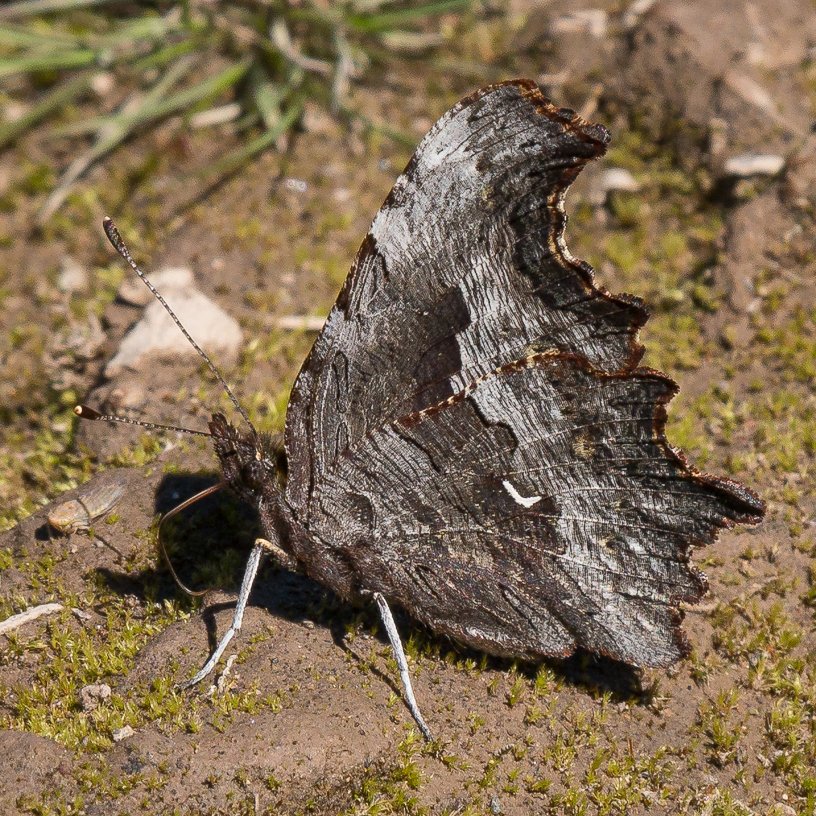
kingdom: Animalia
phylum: Arthropoda
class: Insecta
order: Lepidoptera
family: Nymphalidae
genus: Polygonia
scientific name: Polygonia gracilis
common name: Hoary Comma
